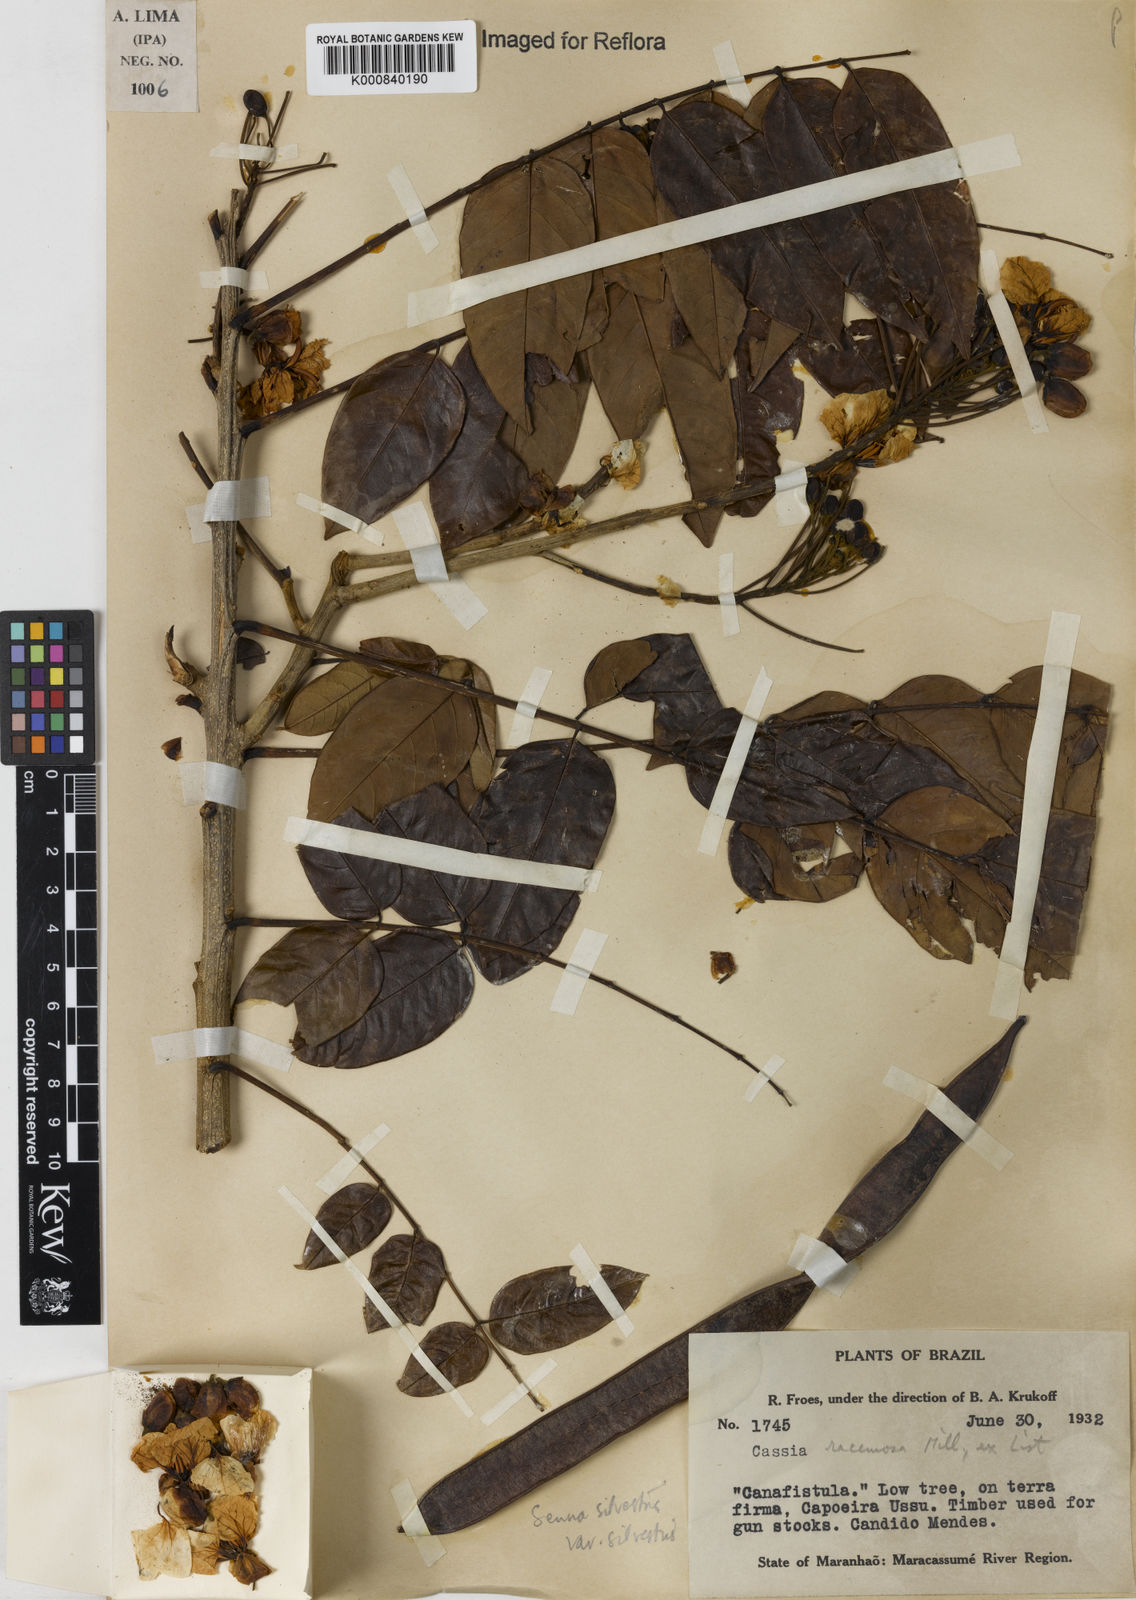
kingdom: Plantae
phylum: Tracheophyta
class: Magnoliopsida
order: Fabales
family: Fabaceae
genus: Senna
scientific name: Senna silvestris
